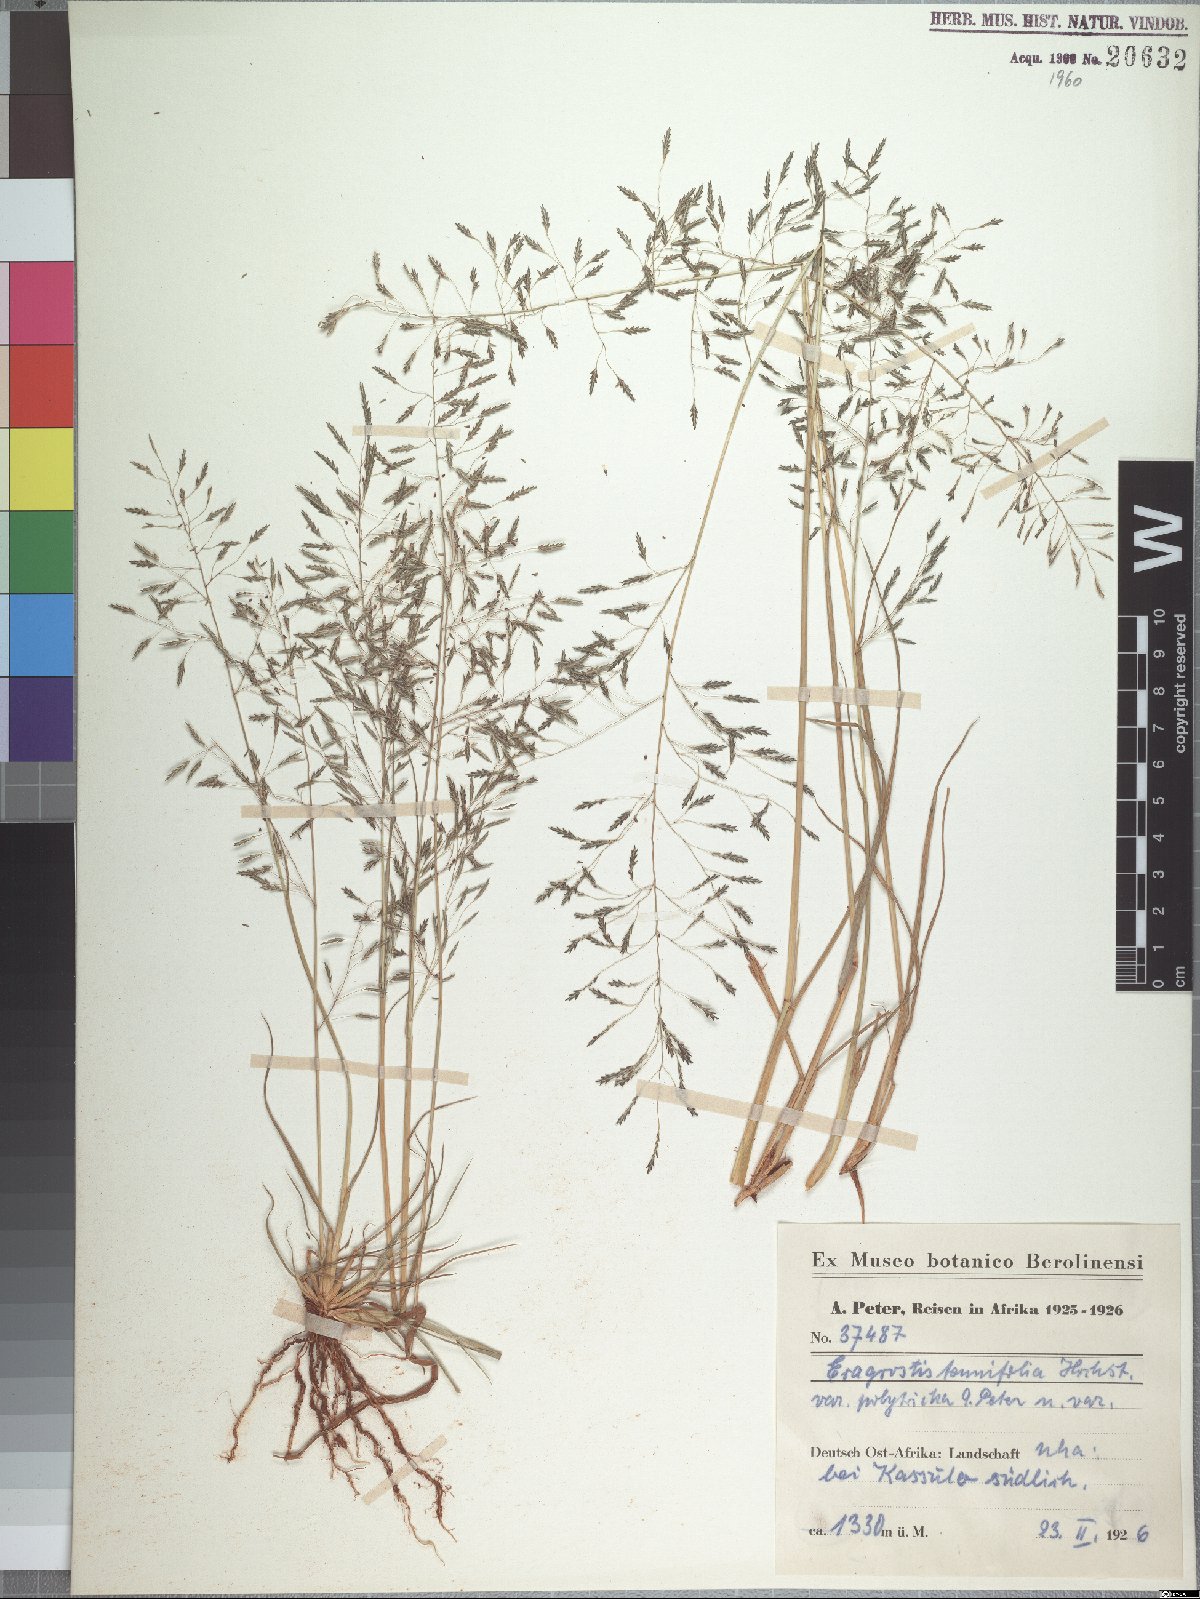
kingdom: Plantae
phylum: Tracheophyta
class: Liliopsida
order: Poales
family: Poaceae
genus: Eragrostis
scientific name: Eragrostis patula
